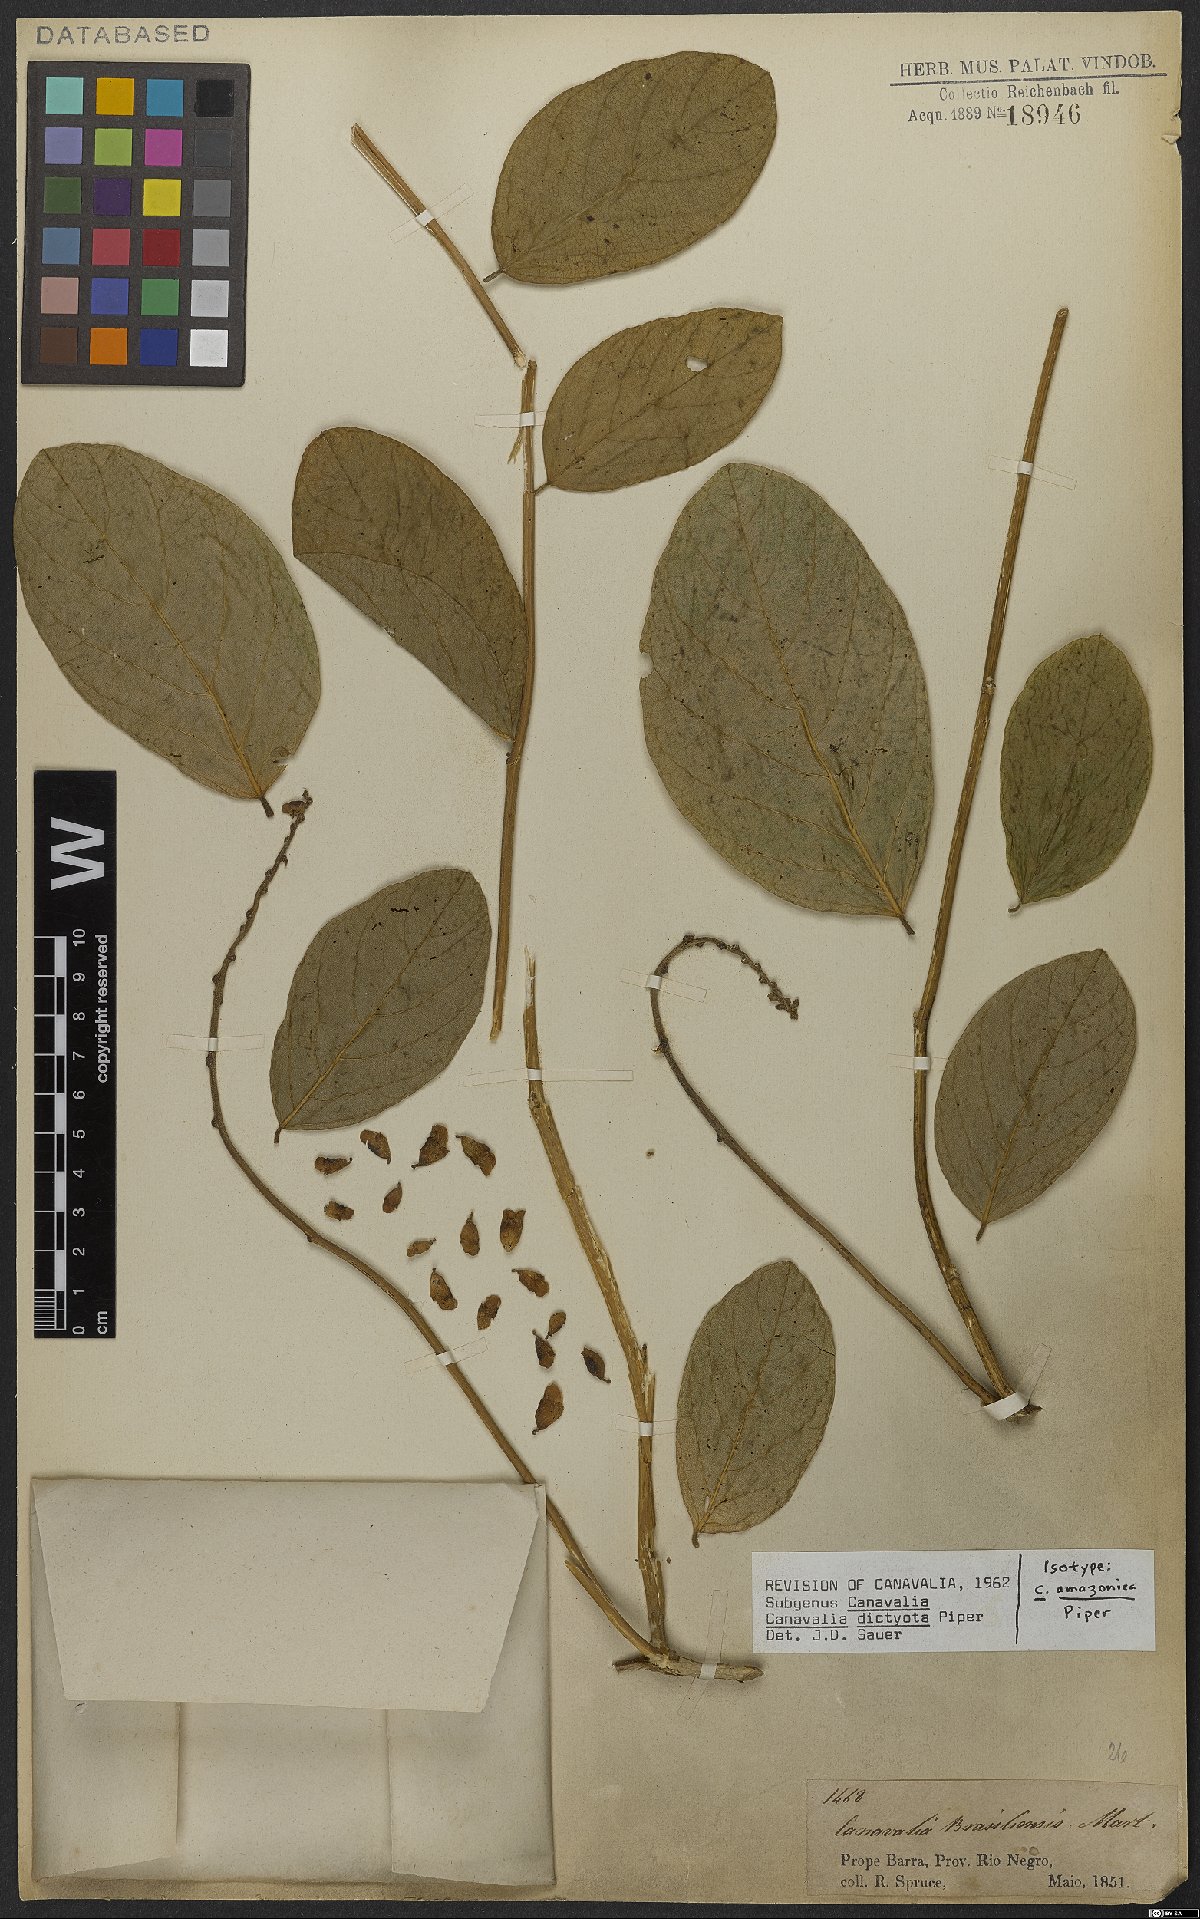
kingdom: Plantae
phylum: Tracheophyta
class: Magnoliopsida
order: Fabales
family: Fabaceae
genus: Canavalia
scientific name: Canavalia brasiliensis
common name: Barbicou-bean
